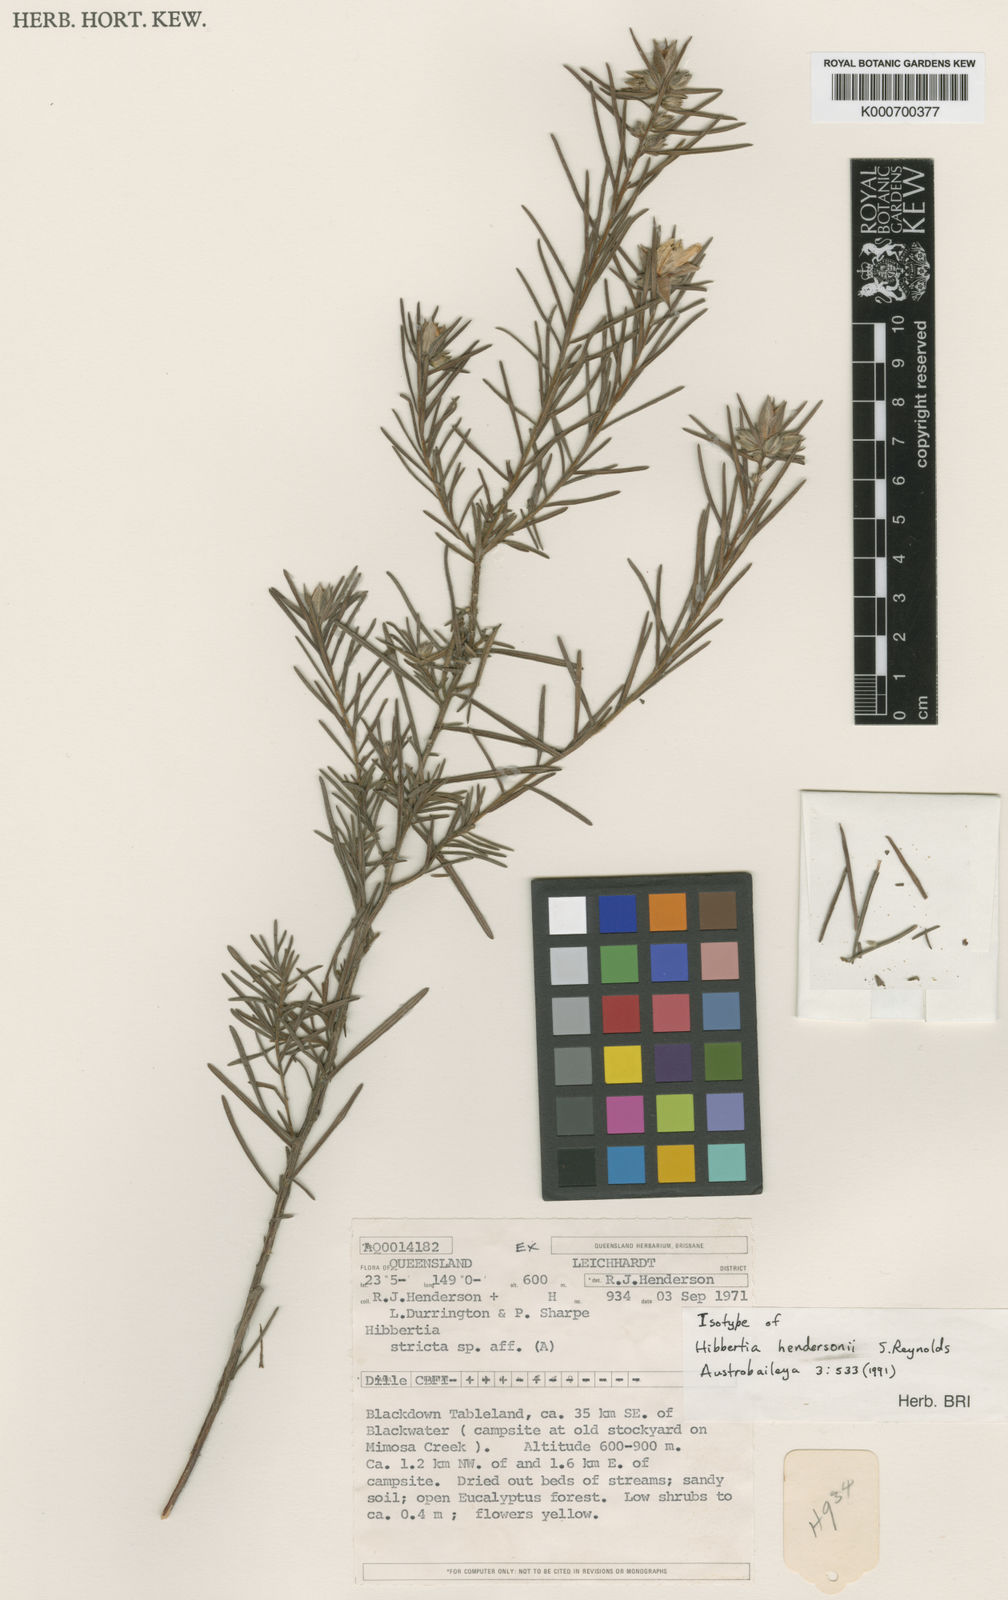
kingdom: Plantae
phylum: Tracheophyta
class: Magnoliopsida
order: Dilleniales
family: Dilleniaceae
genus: Hibbertia
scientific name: Hibbertia hendersonii
